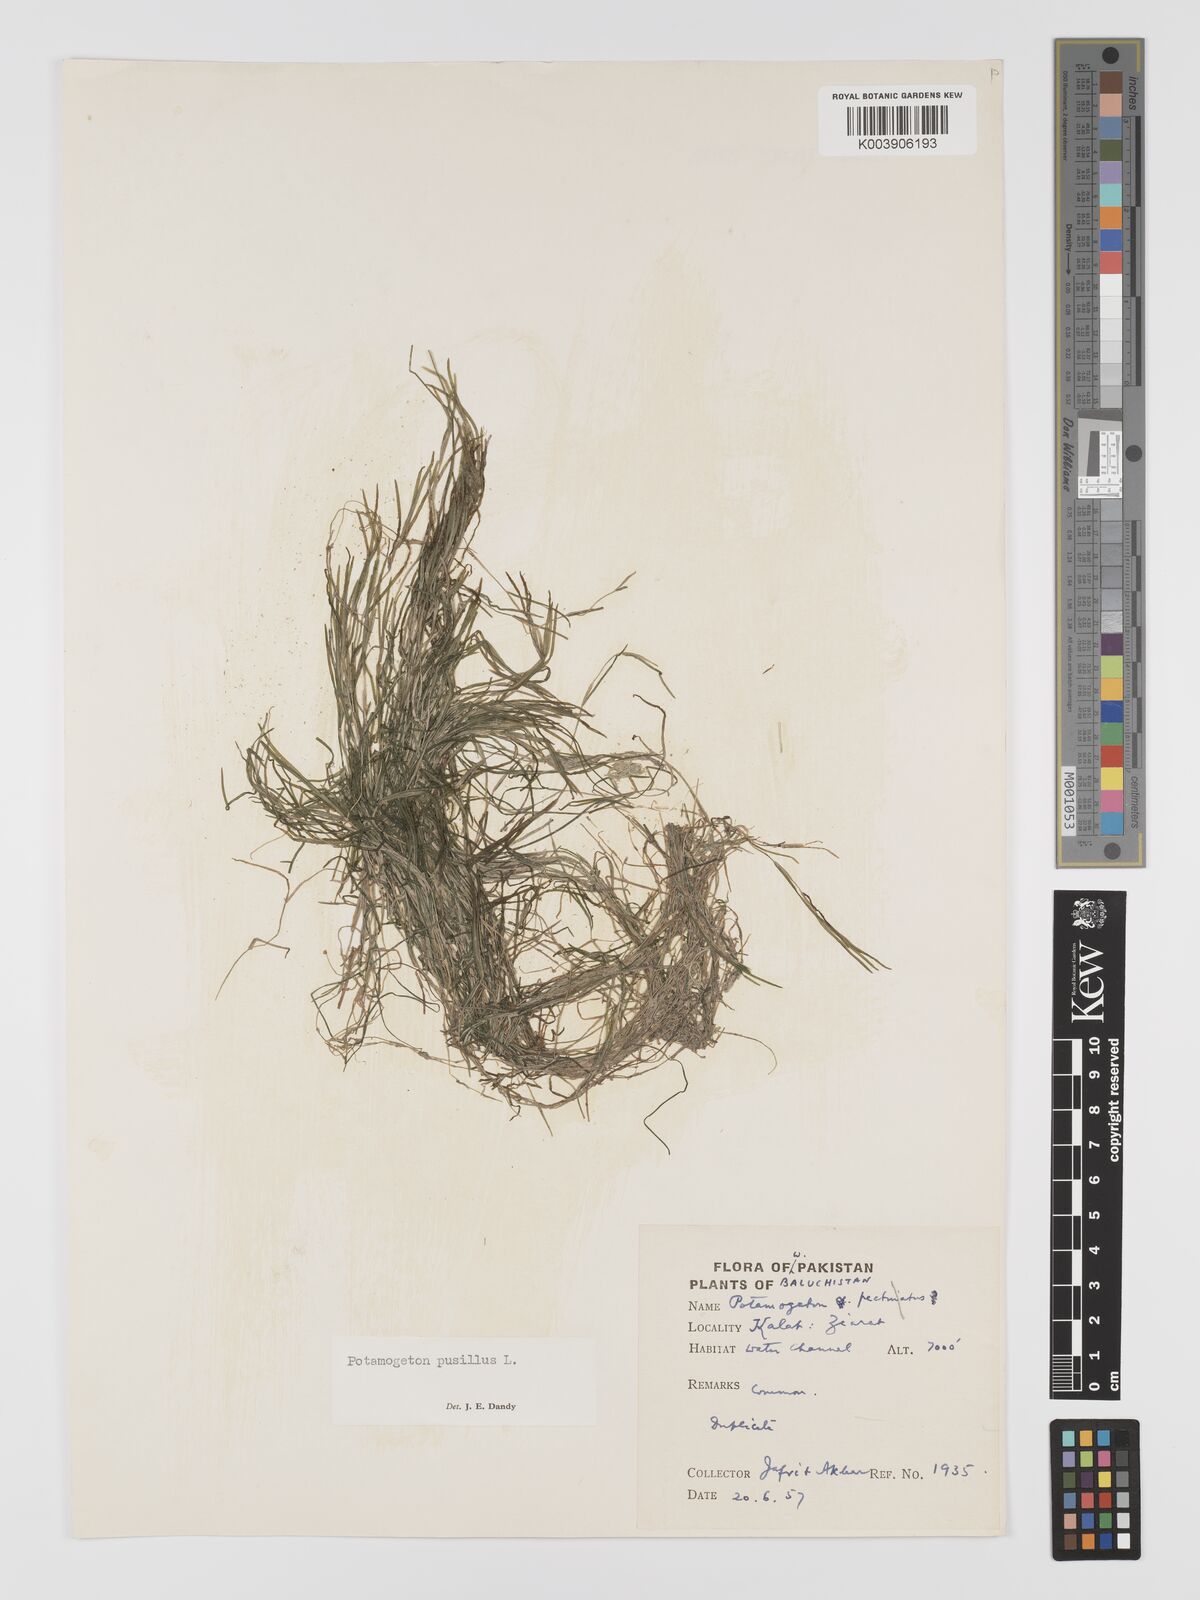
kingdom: Plantae
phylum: Tracheophyta
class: Liliopsida
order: Alismatales
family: Potamogetonaceae
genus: Potamogeton
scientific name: Potamogeton pusillus
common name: Lesser pondweed
